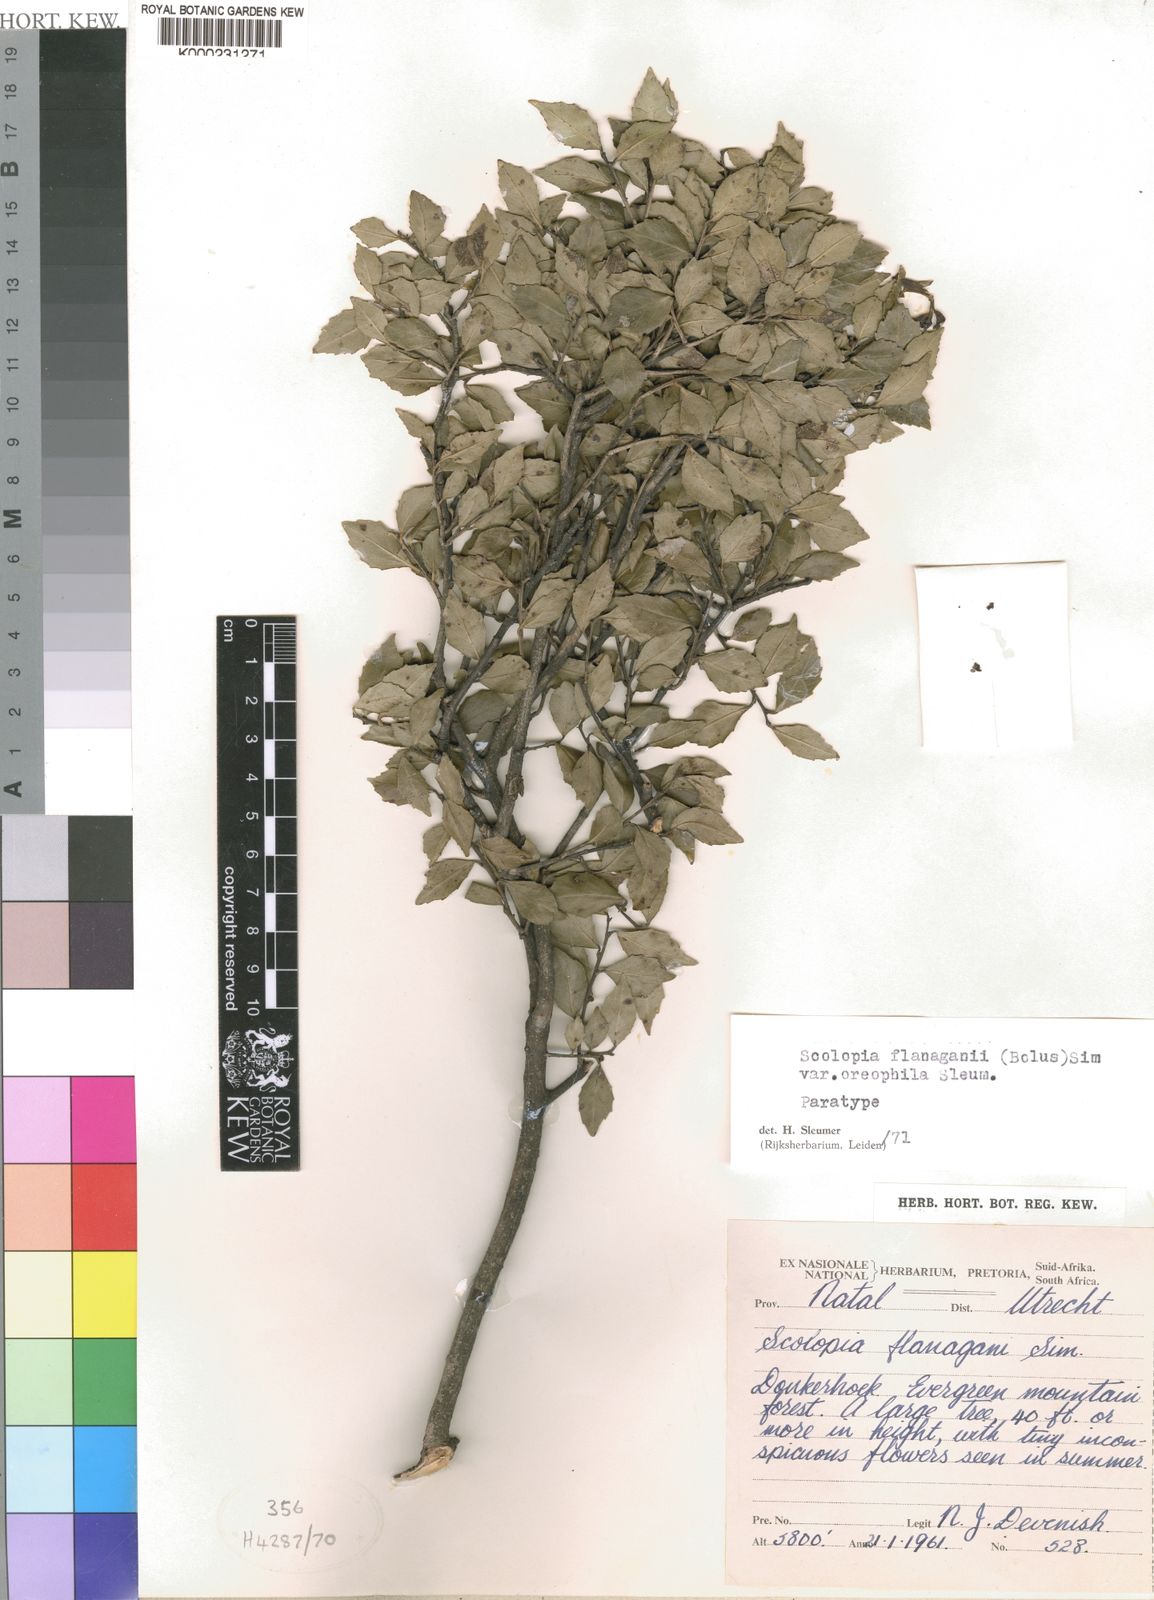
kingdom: Plantae
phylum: Tracheophyta
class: Magnoliopsida
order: Malpighiales
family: Salicaceae
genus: Scolopia
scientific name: Scolopia oreophila
